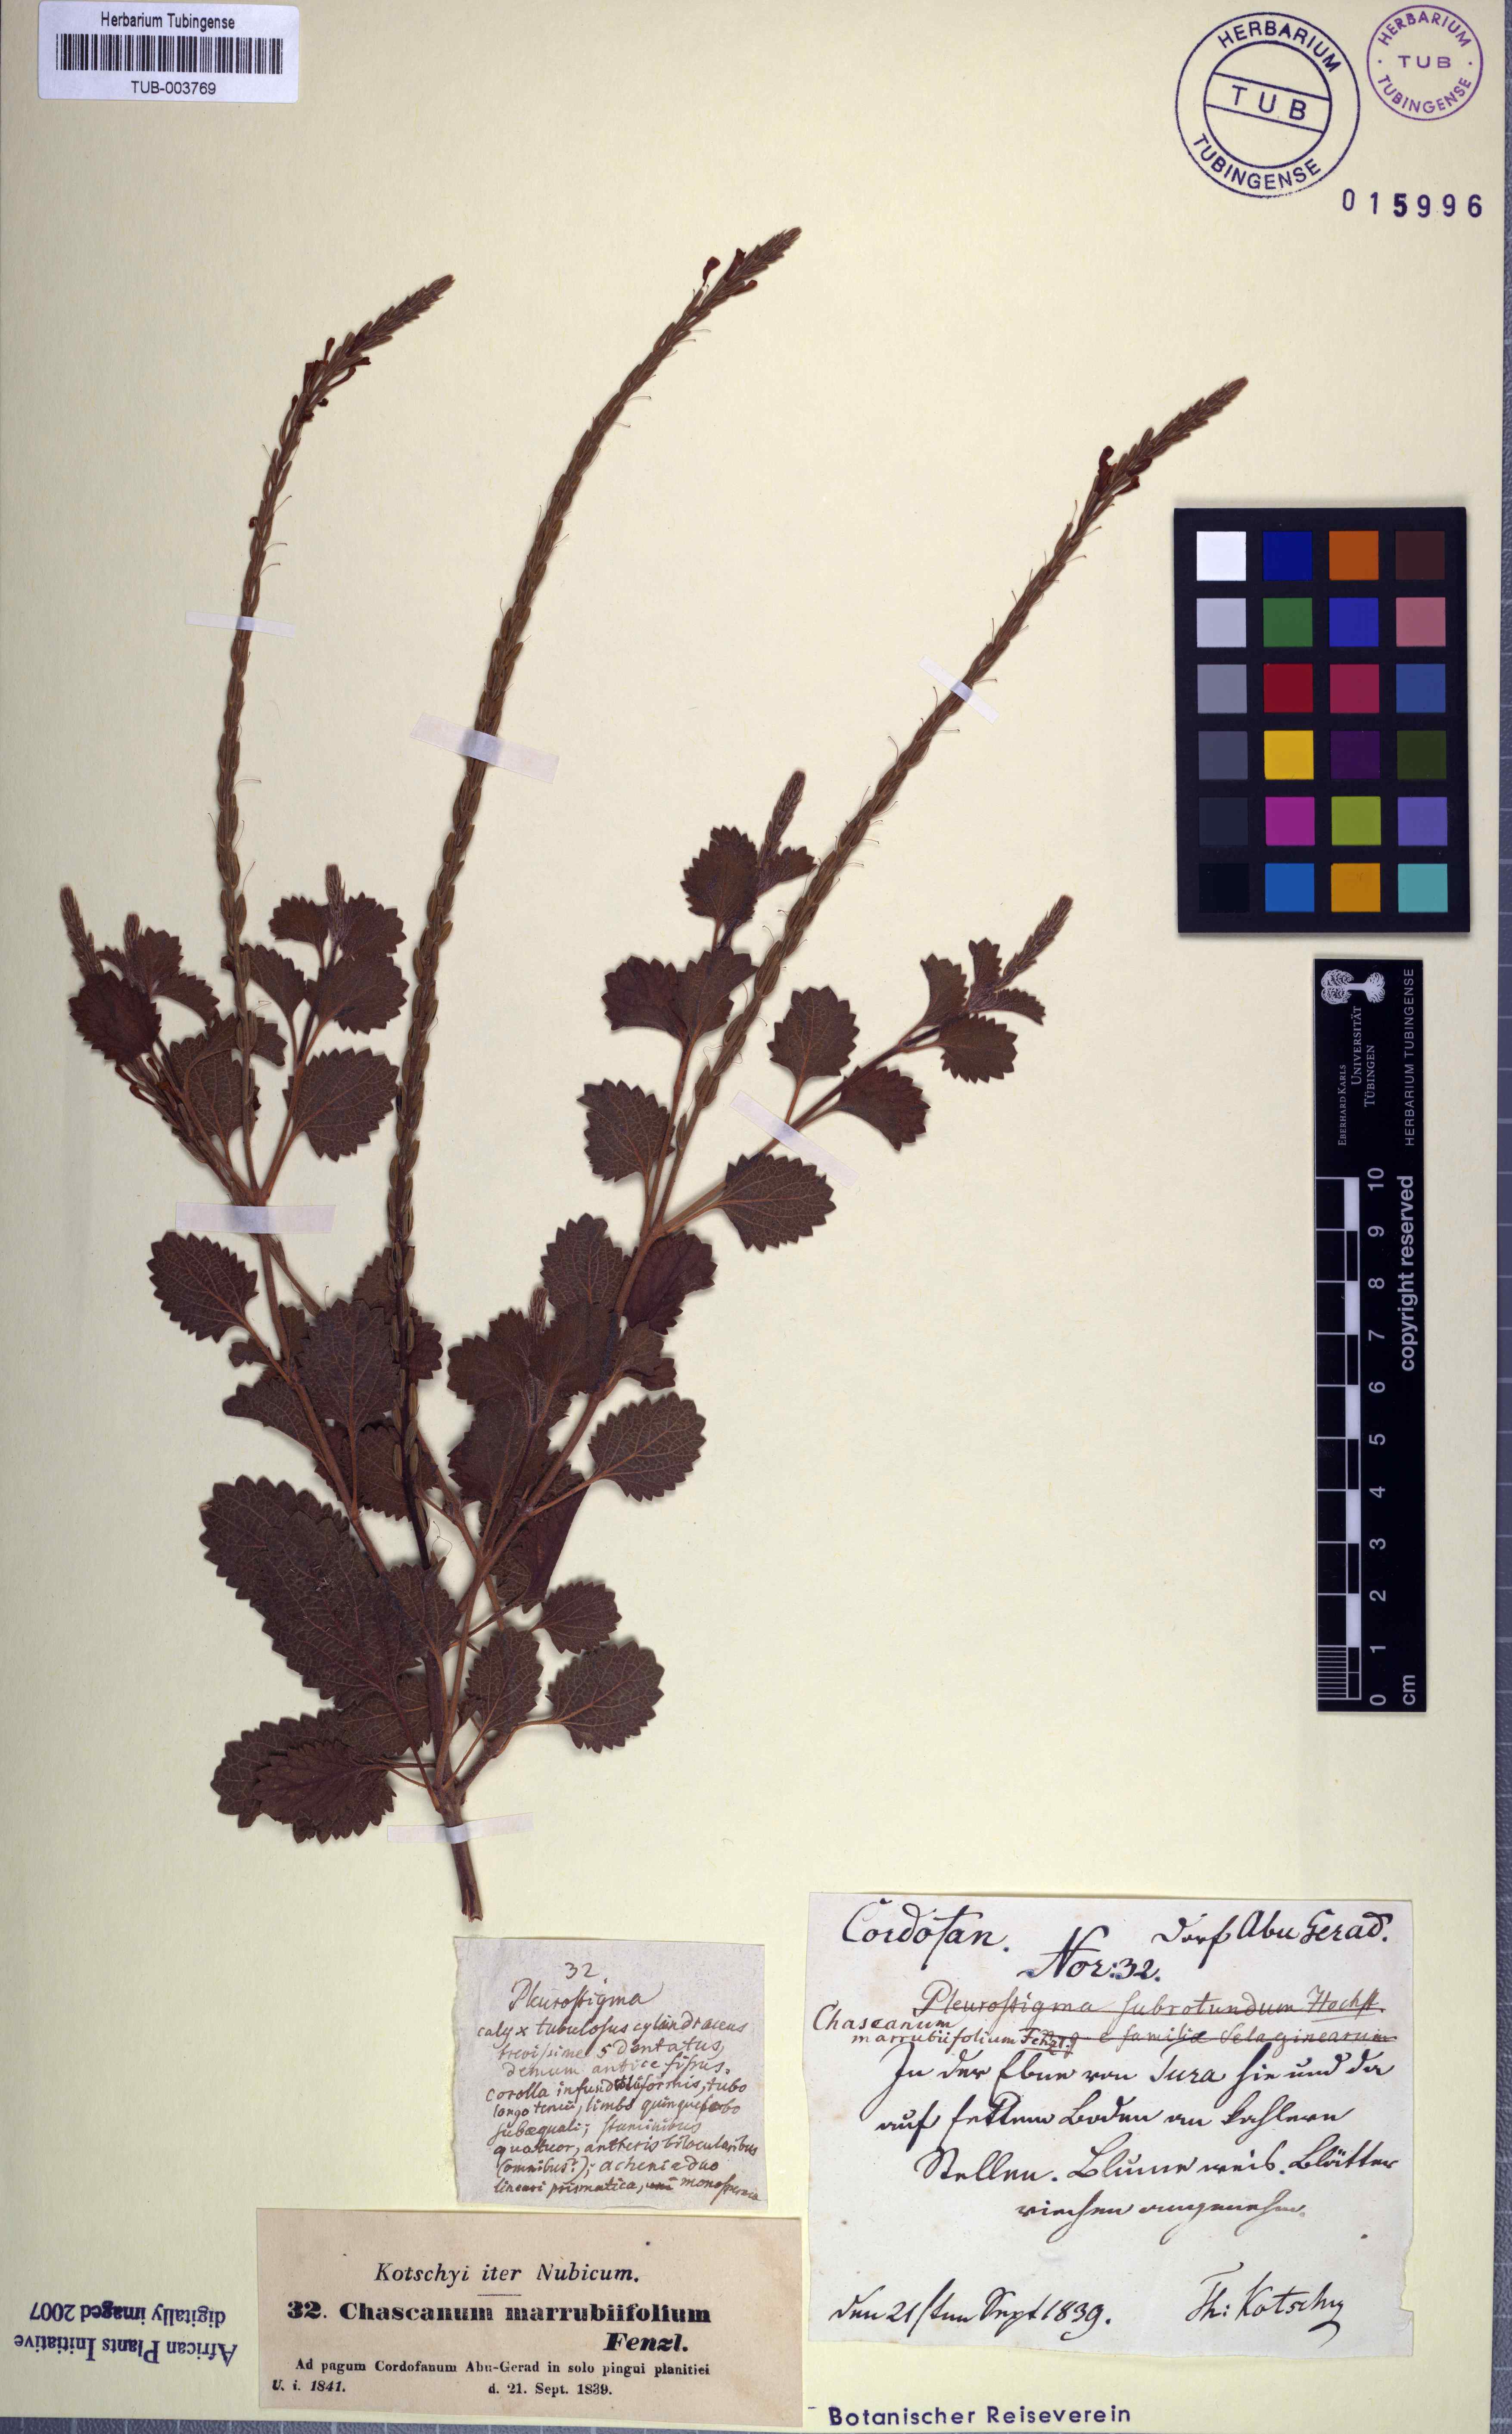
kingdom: Plantae
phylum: Tracheophyta
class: Magnoliopsida
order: Lamiales
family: Verbenaceae
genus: Chascanum
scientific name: Chascanum marrubiifolium
